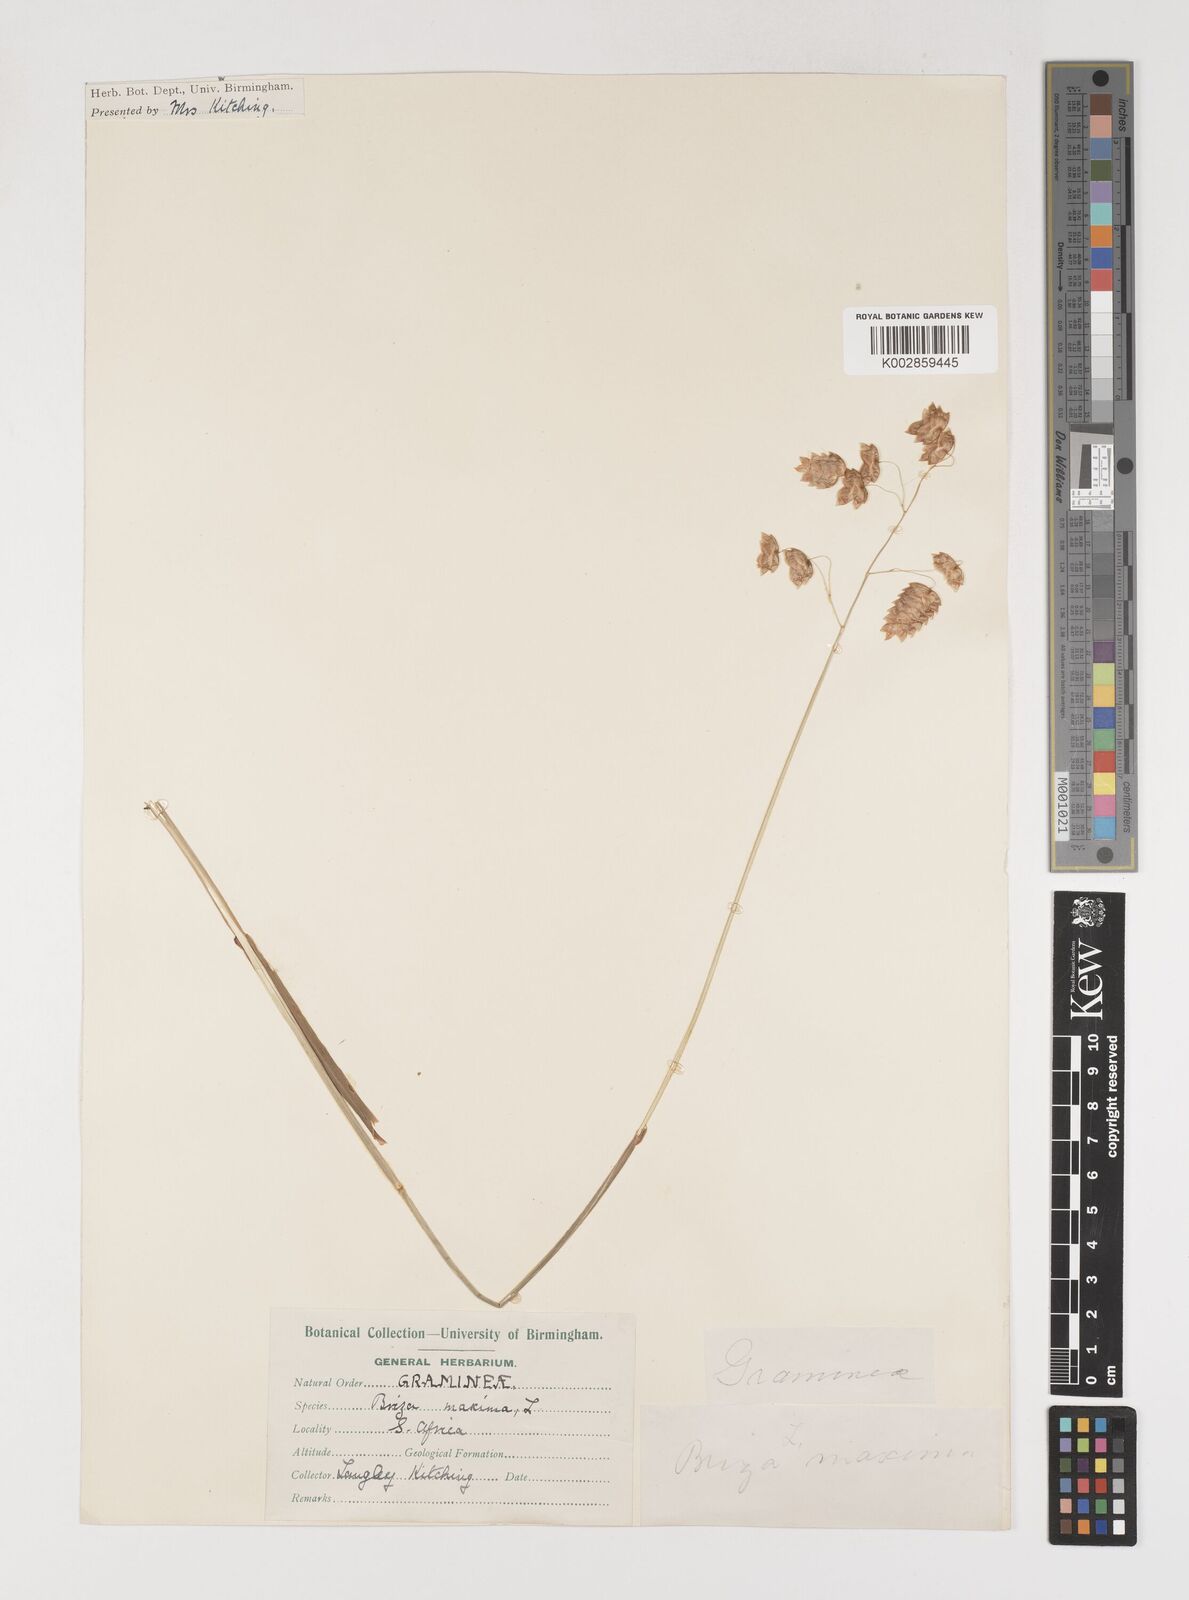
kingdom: Plantae
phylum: Tracheophyta
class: Liliopsida
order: Poales
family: Poaceae
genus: Briza
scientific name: Briza maxima
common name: Big quakinggrass
